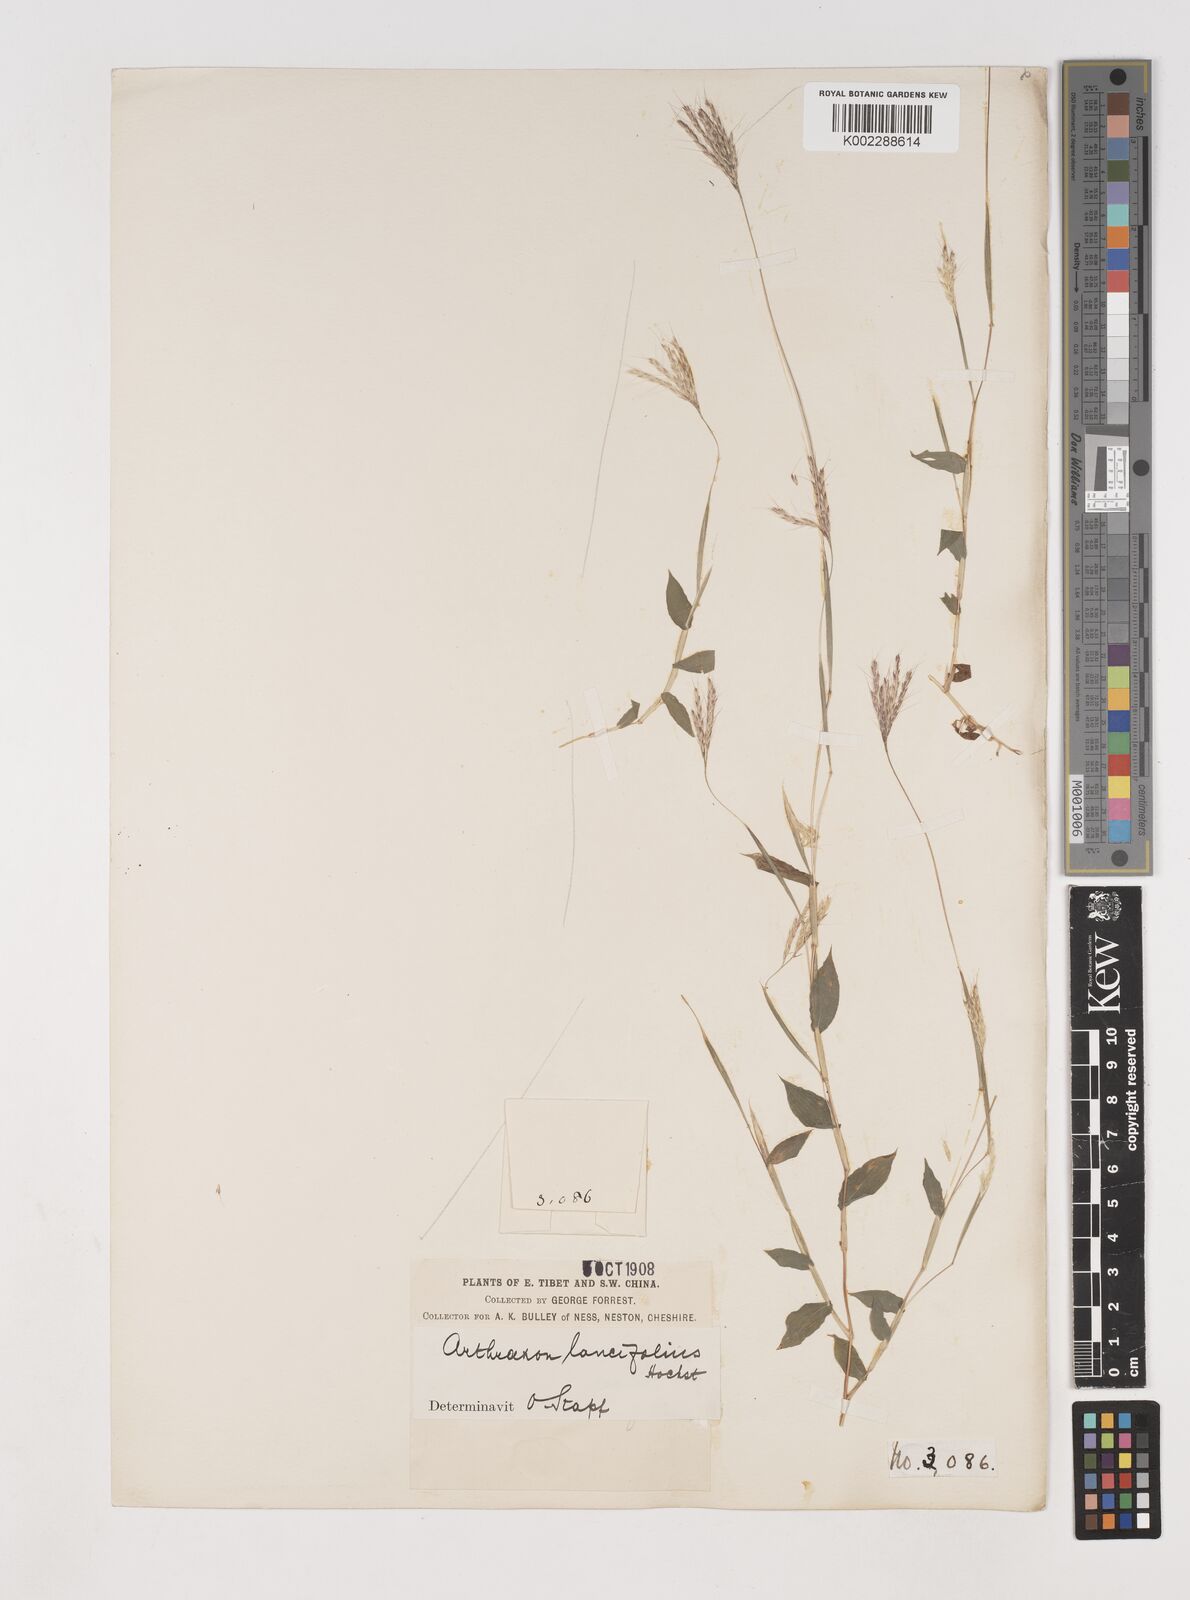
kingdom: Plantae
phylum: Tracheophyta
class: Liliopsida
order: Poales
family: Poaceae
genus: Arthraxon
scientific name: Arthraxon lancifolius
